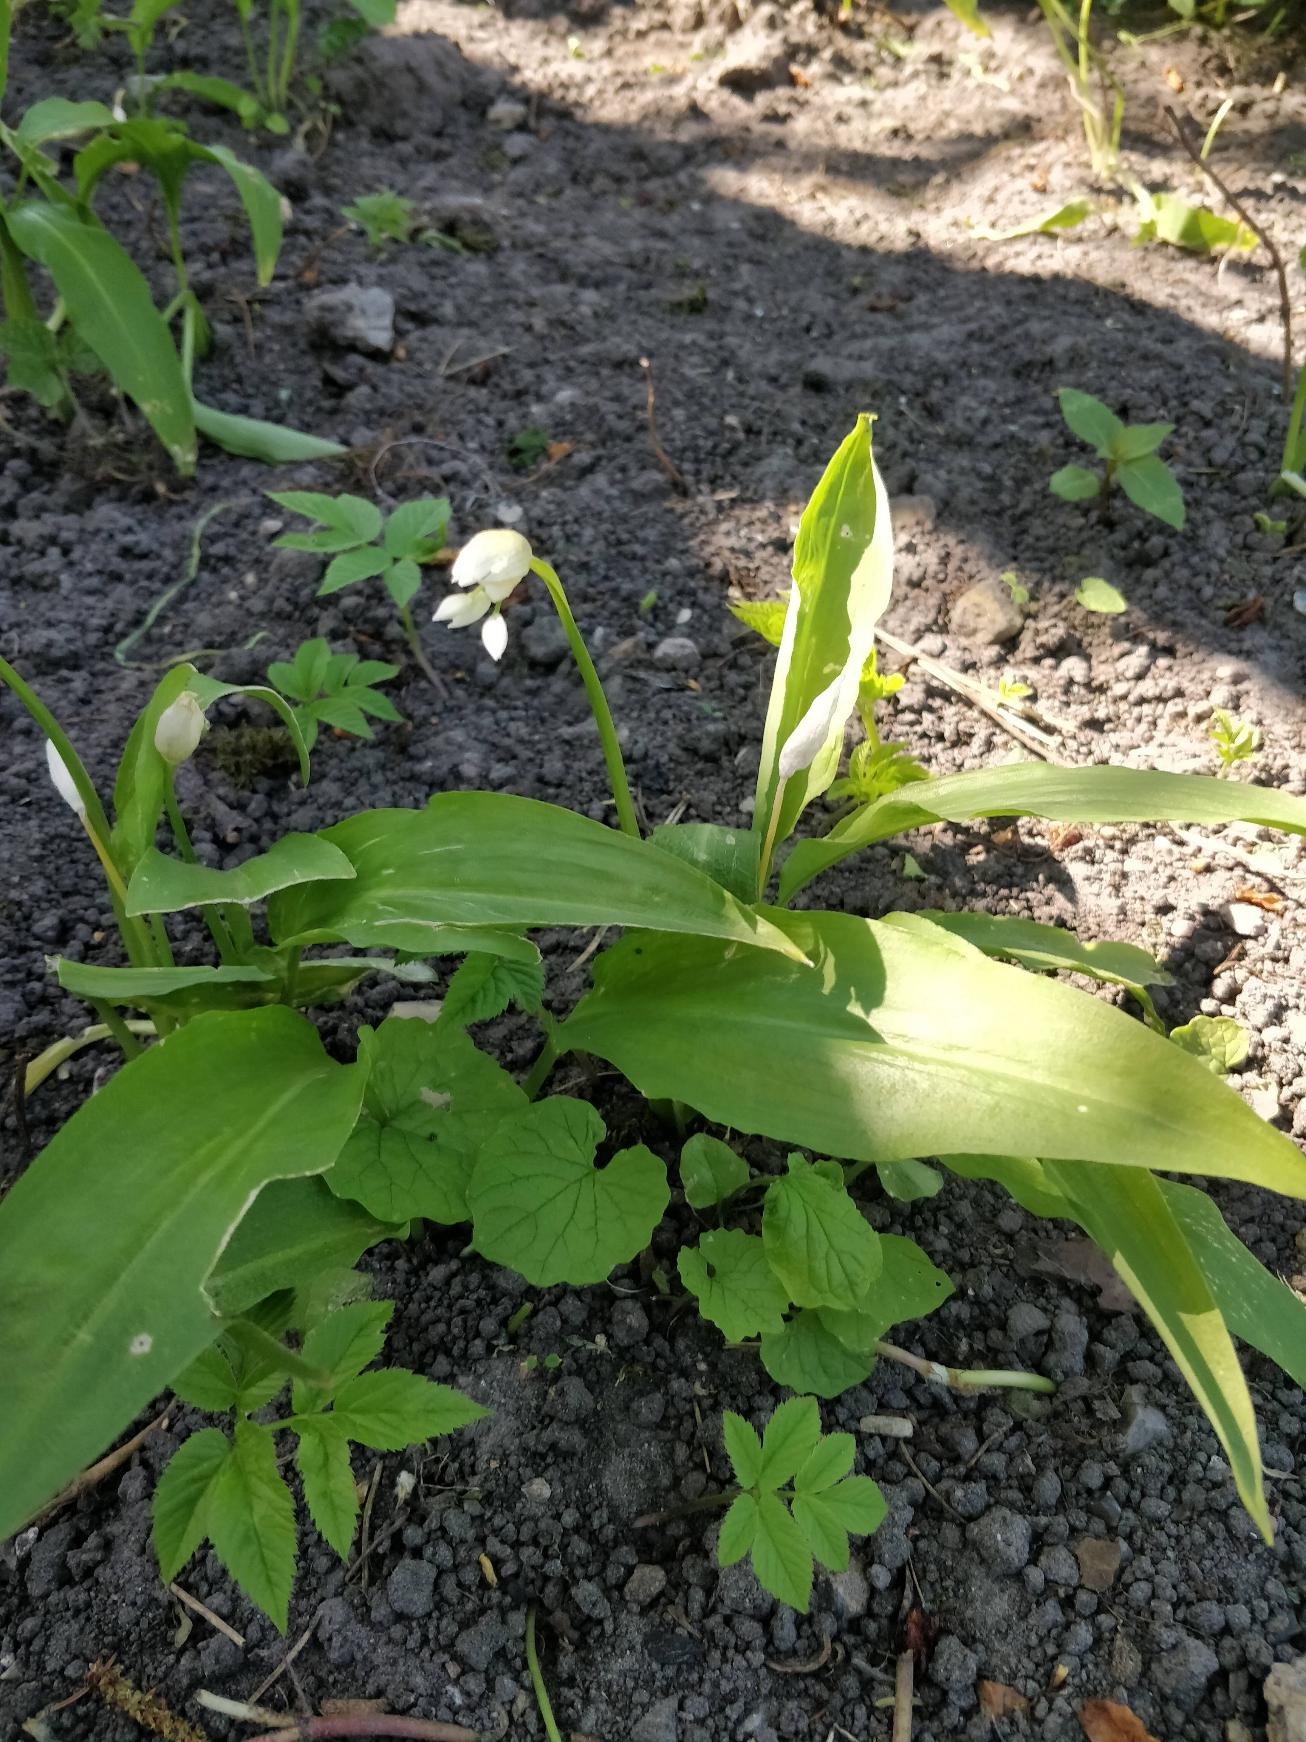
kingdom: Plantae
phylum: Tracheophyta
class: Liliopsida
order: Asparagales
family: Amaryllidaceae
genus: Allium
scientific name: Allium ursinum
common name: Rams-løg
